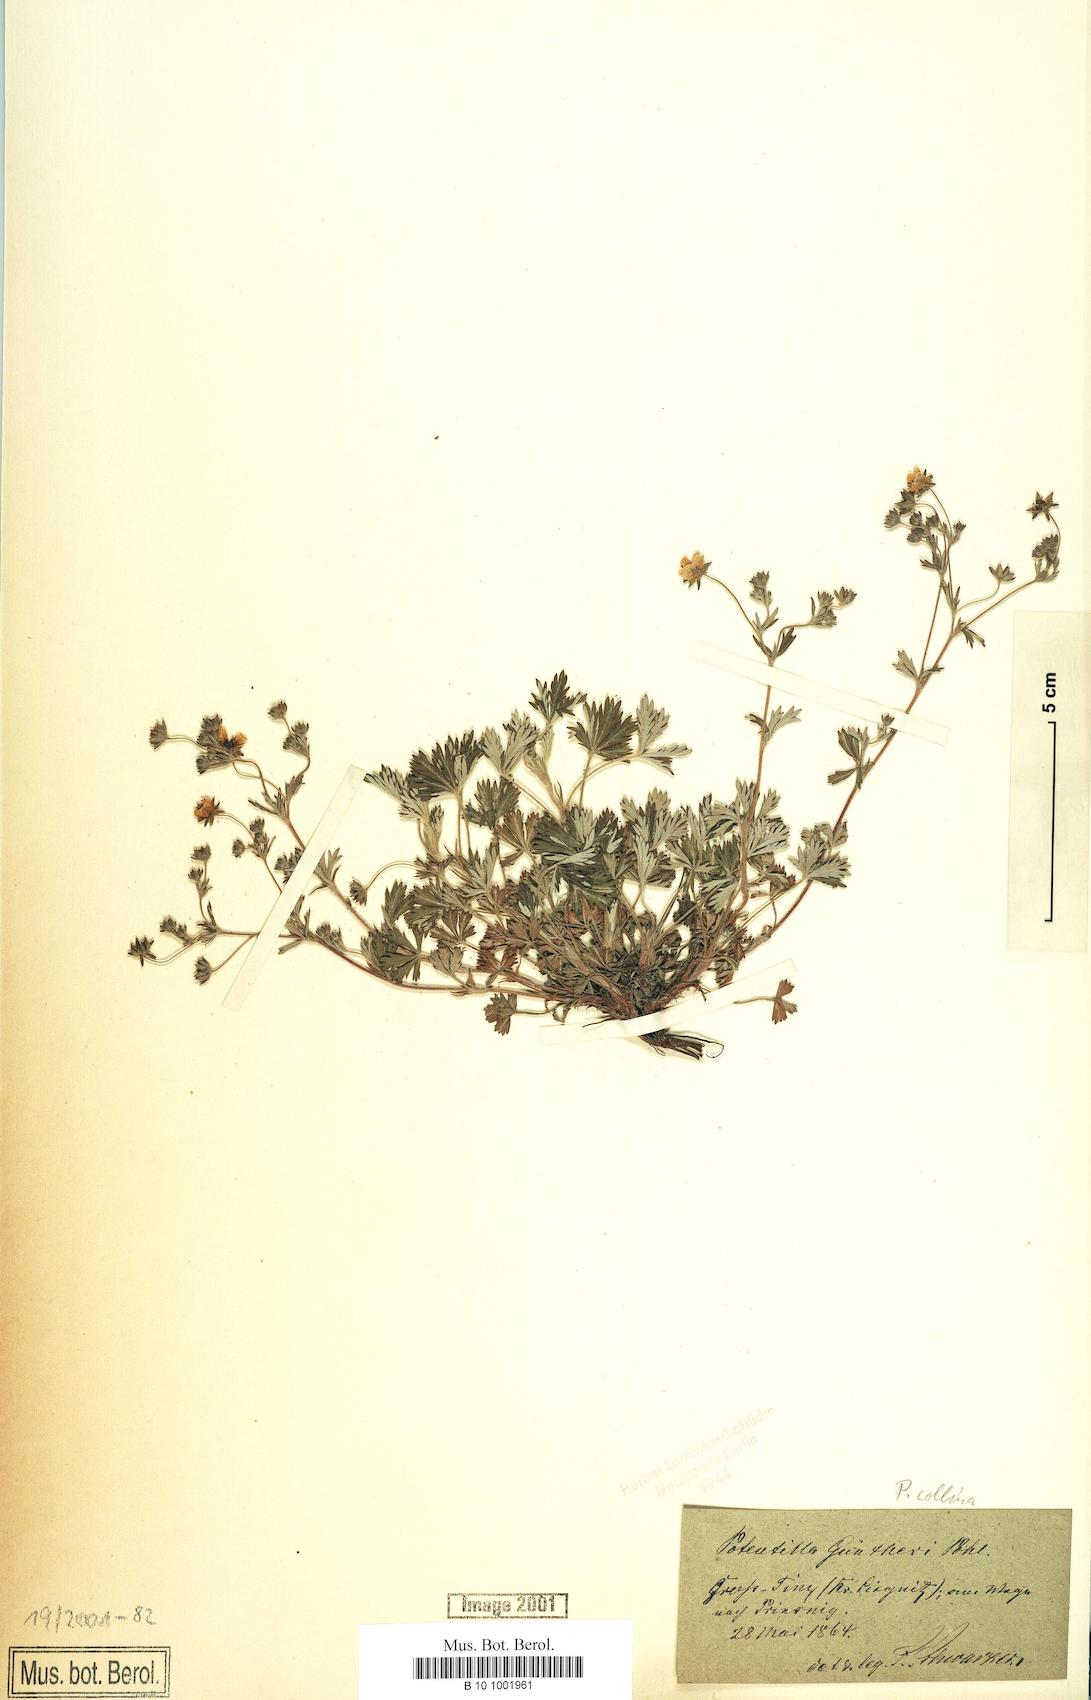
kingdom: Plantae
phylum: Tracheophyta
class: Magnoliopsida
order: Rosales
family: Rosaceae
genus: Potentilla
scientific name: Potentilla collina
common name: Palmleaf cinquefoil
